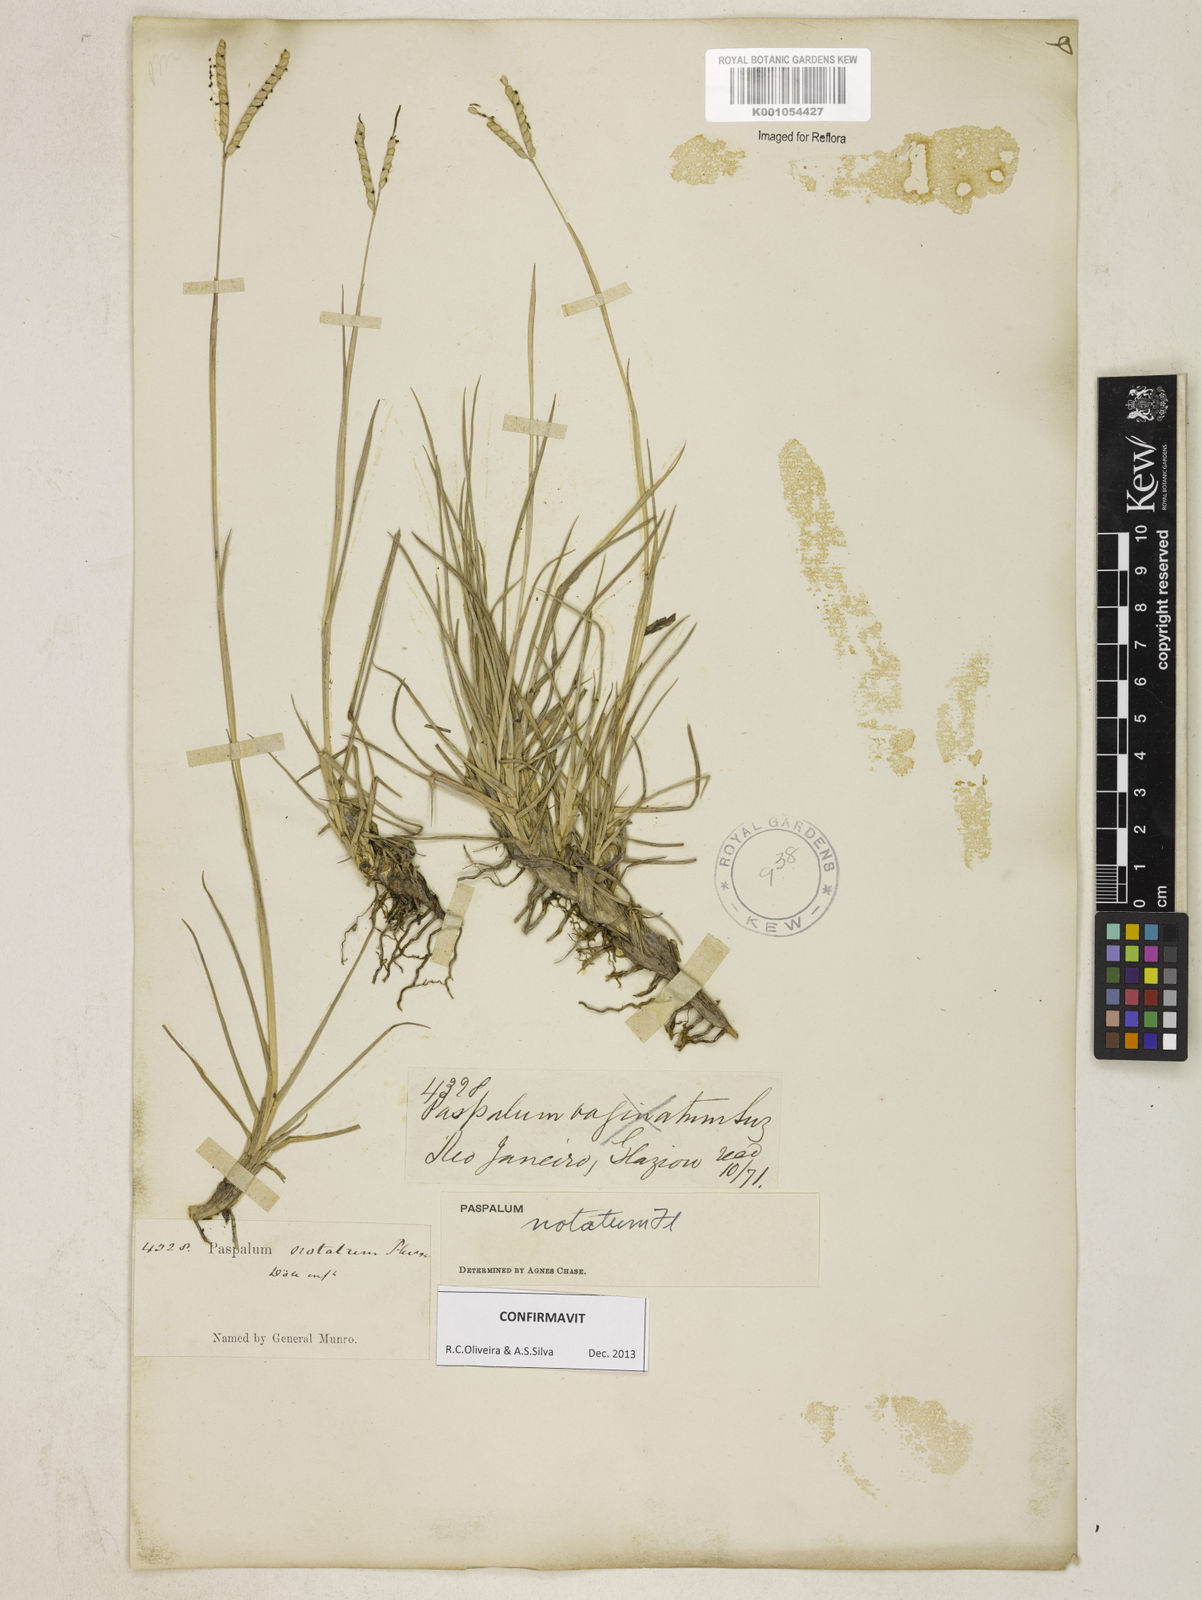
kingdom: Plantae
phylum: Tracheophyta
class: Liliopsida
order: Poales
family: Poaceae
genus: Paspalum
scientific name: Paspalum
